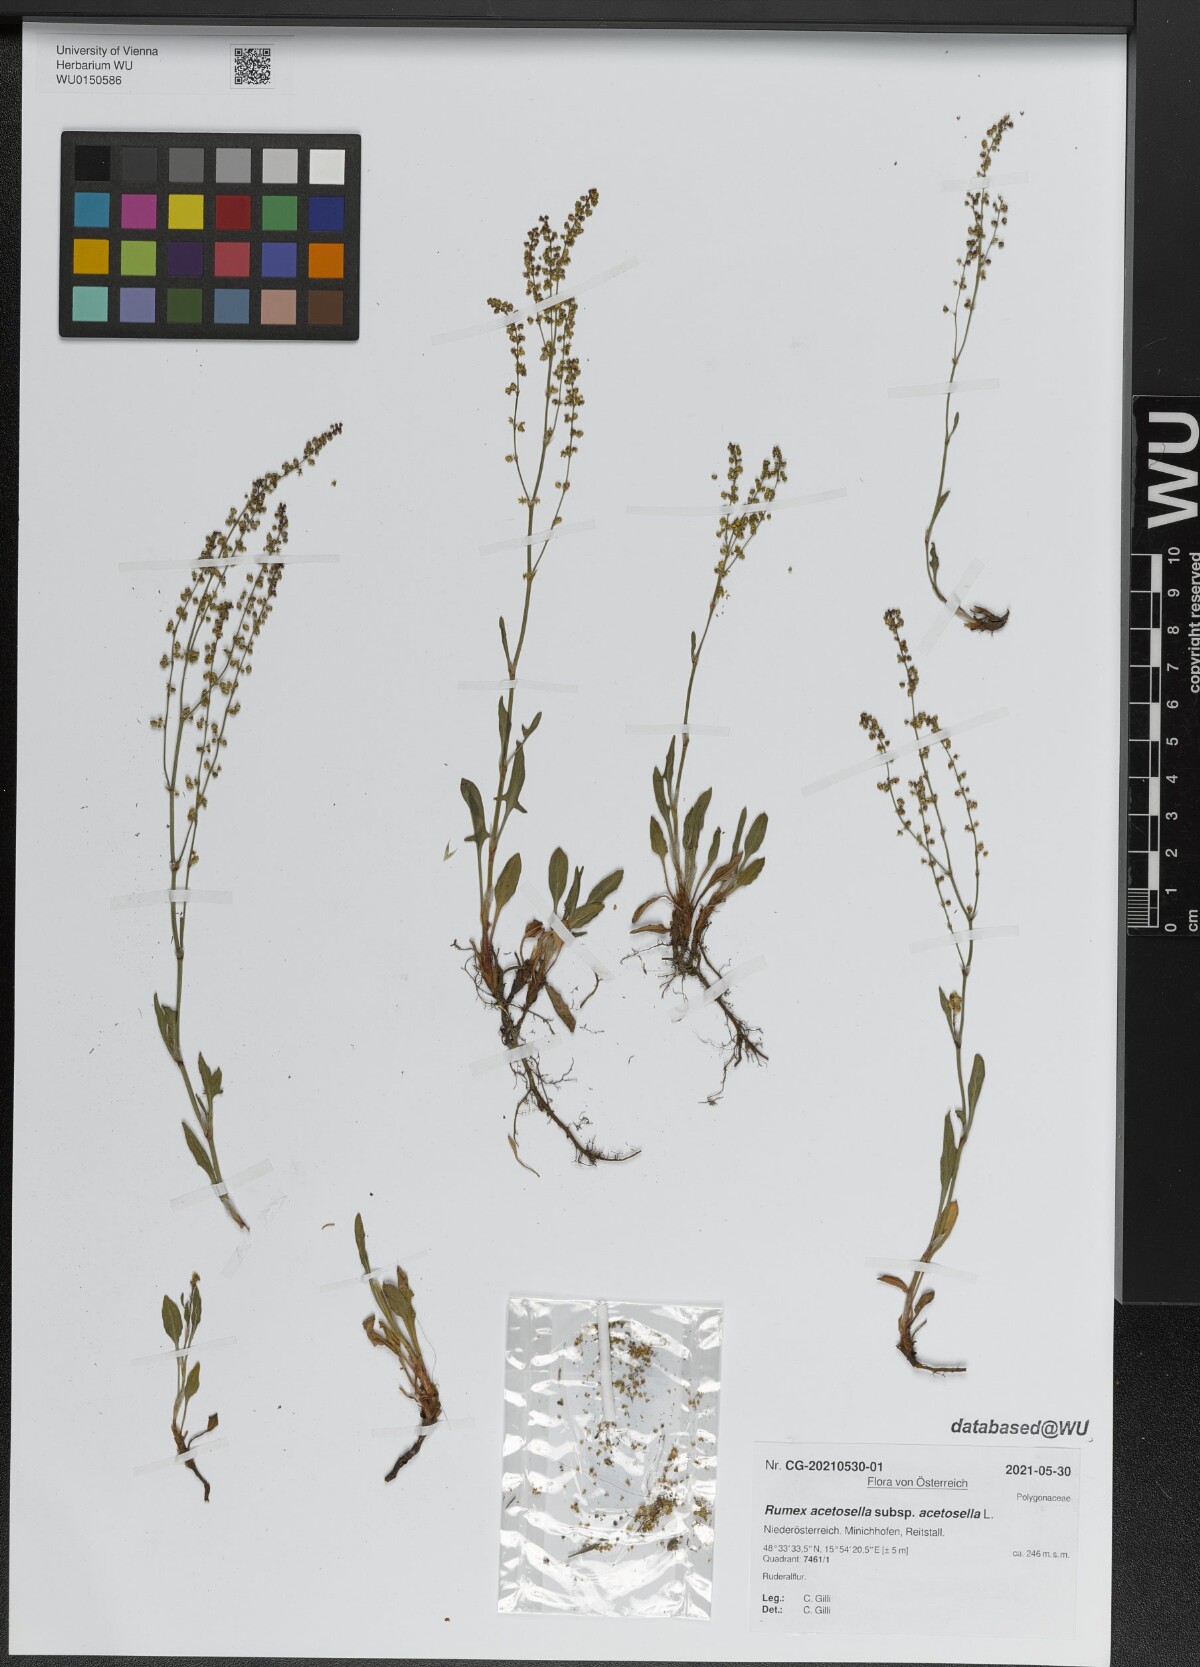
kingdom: Plantae
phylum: Tracheophyta
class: Magnoliopsida
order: Caryophyllales
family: Polygonaceae
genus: Rumex
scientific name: Rumex acetosella
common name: Common sheep sorrel
